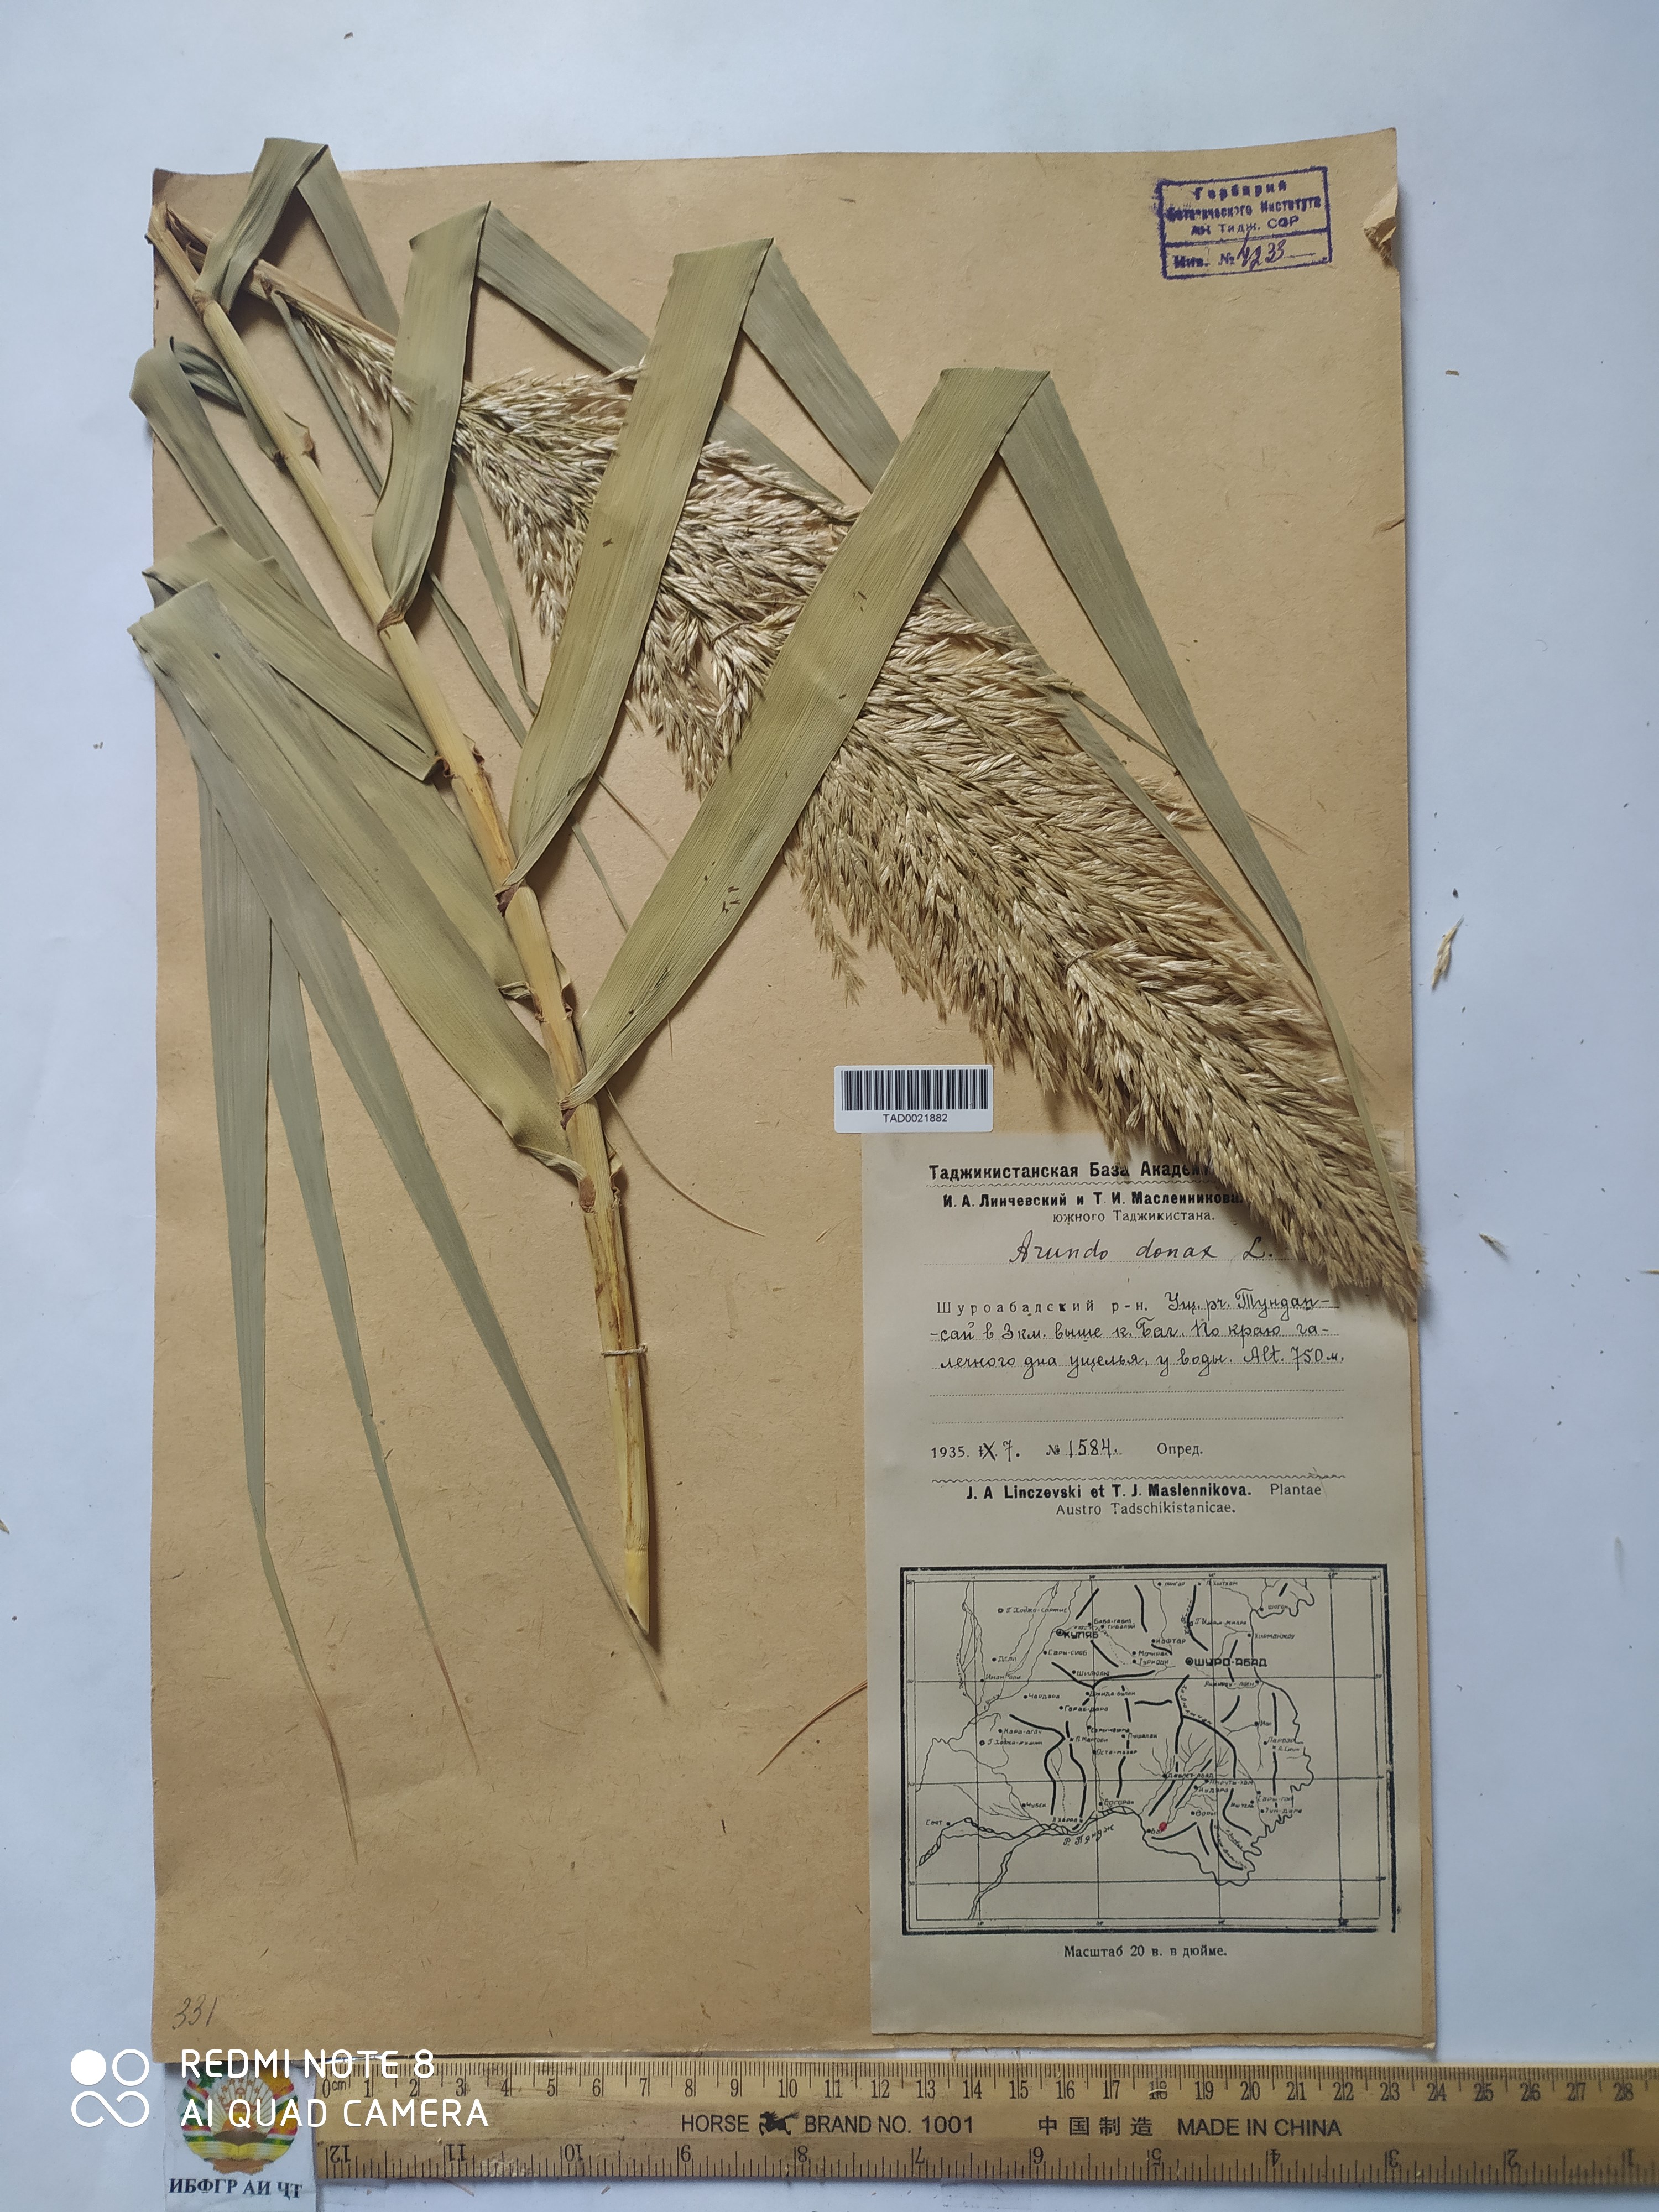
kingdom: Plantae
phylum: Tracheophyta
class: Liliopsida
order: Poales
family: Poaceae
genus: Arundo
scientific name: Arundo donax
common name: Giant reed
